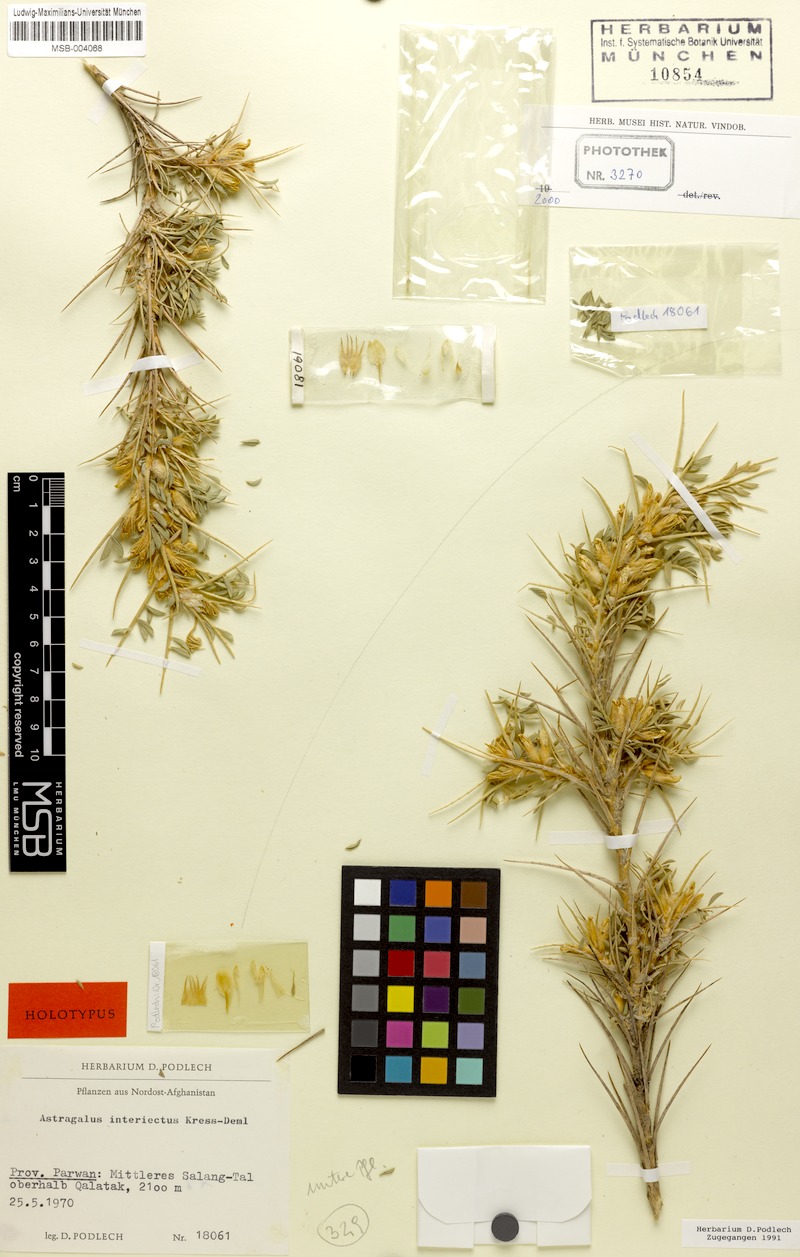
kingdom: Plantae
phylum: Tracheophyta
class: Magnoliopsida
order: Fabales
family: Fabaceae
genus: Astragalus
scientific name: Astragalus interiectus
